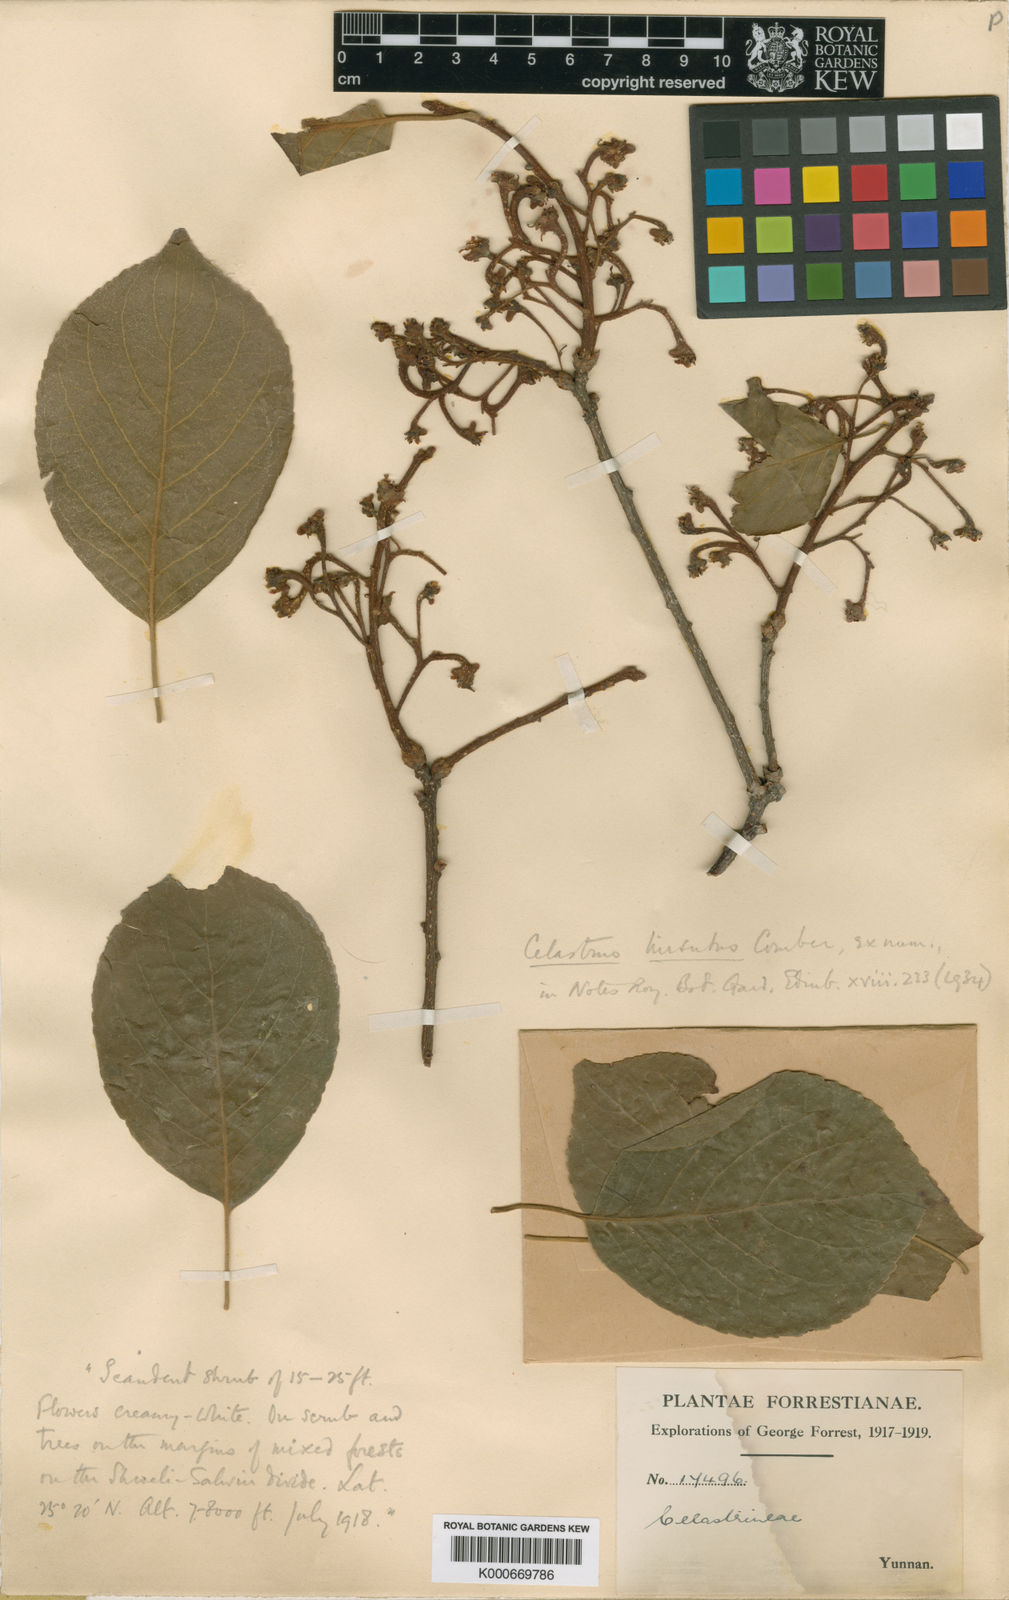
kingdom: Plantae
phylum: Tracheophyta
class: Magnoliopsida
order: Celastrales
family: Celastraceae
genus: Celastrus
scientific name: Celastrus hirsutus
